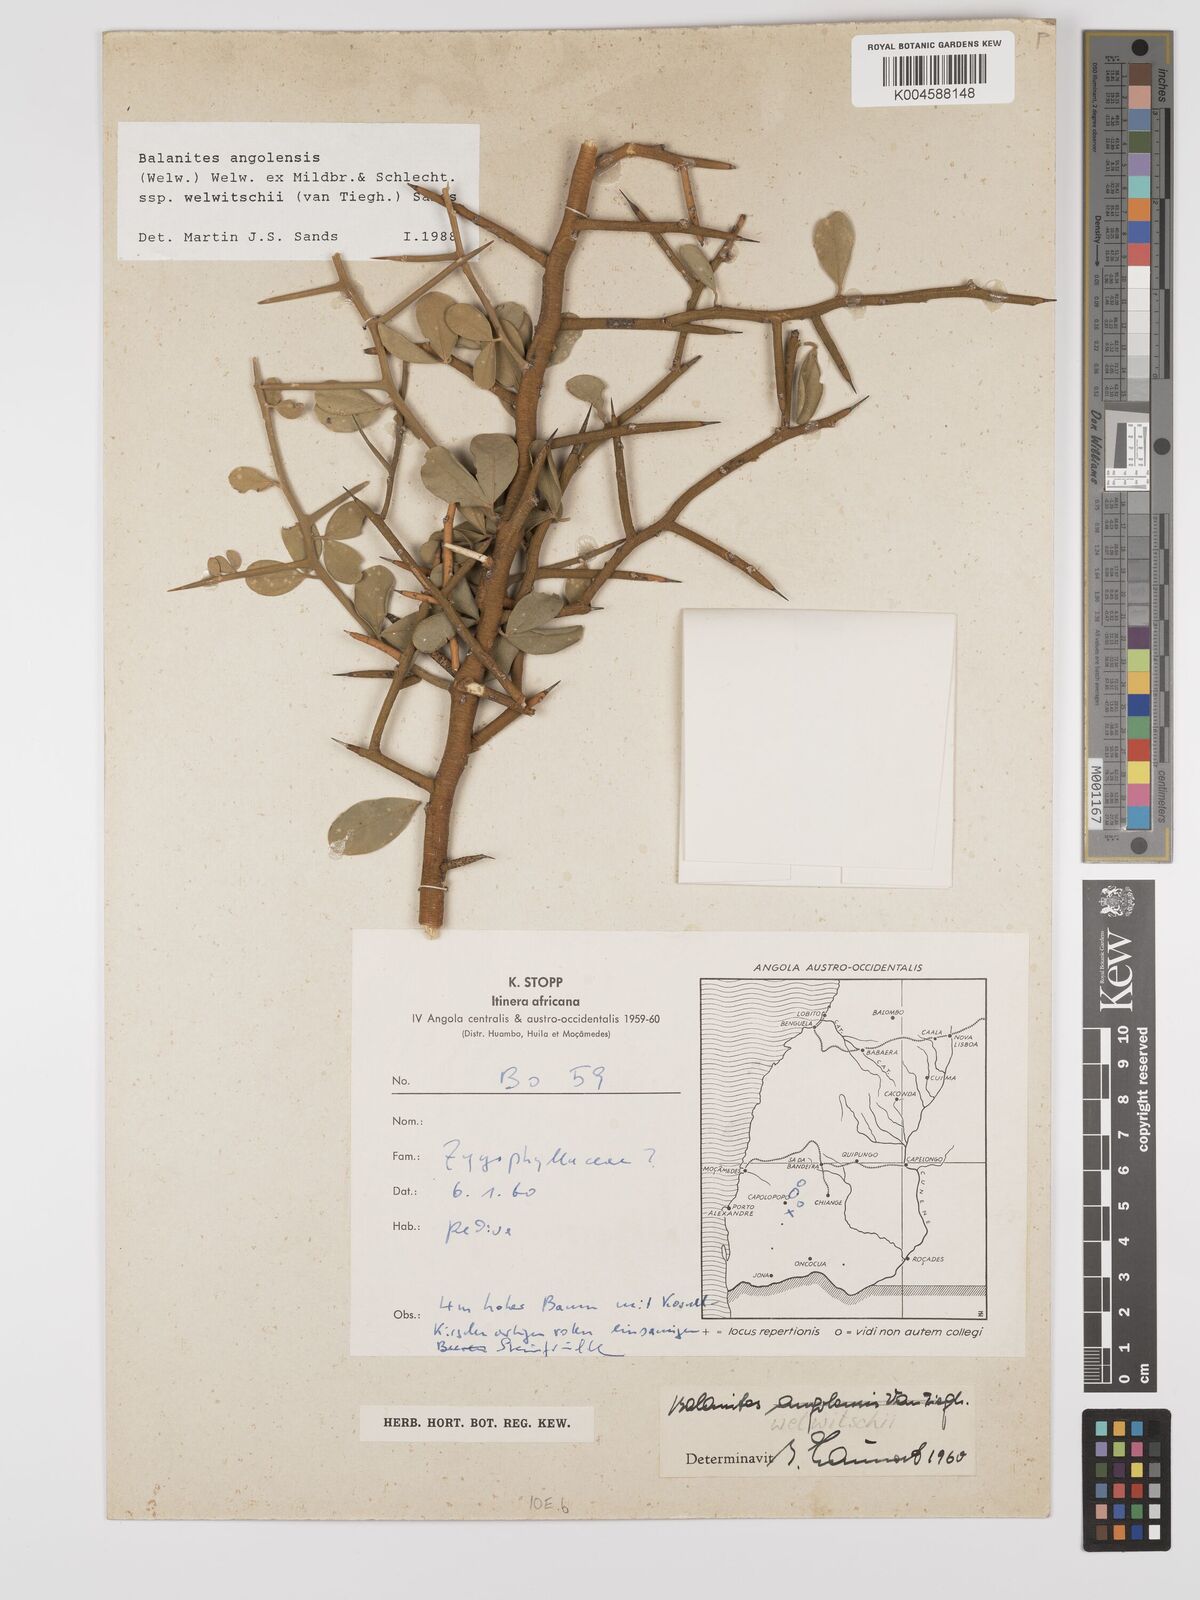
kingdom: Plantae
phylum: Tracheophyta
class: Magnoliopsida
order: Zygophyllales
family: Zygophyllaceae
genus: Balanites
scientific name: Balanites angolensis
